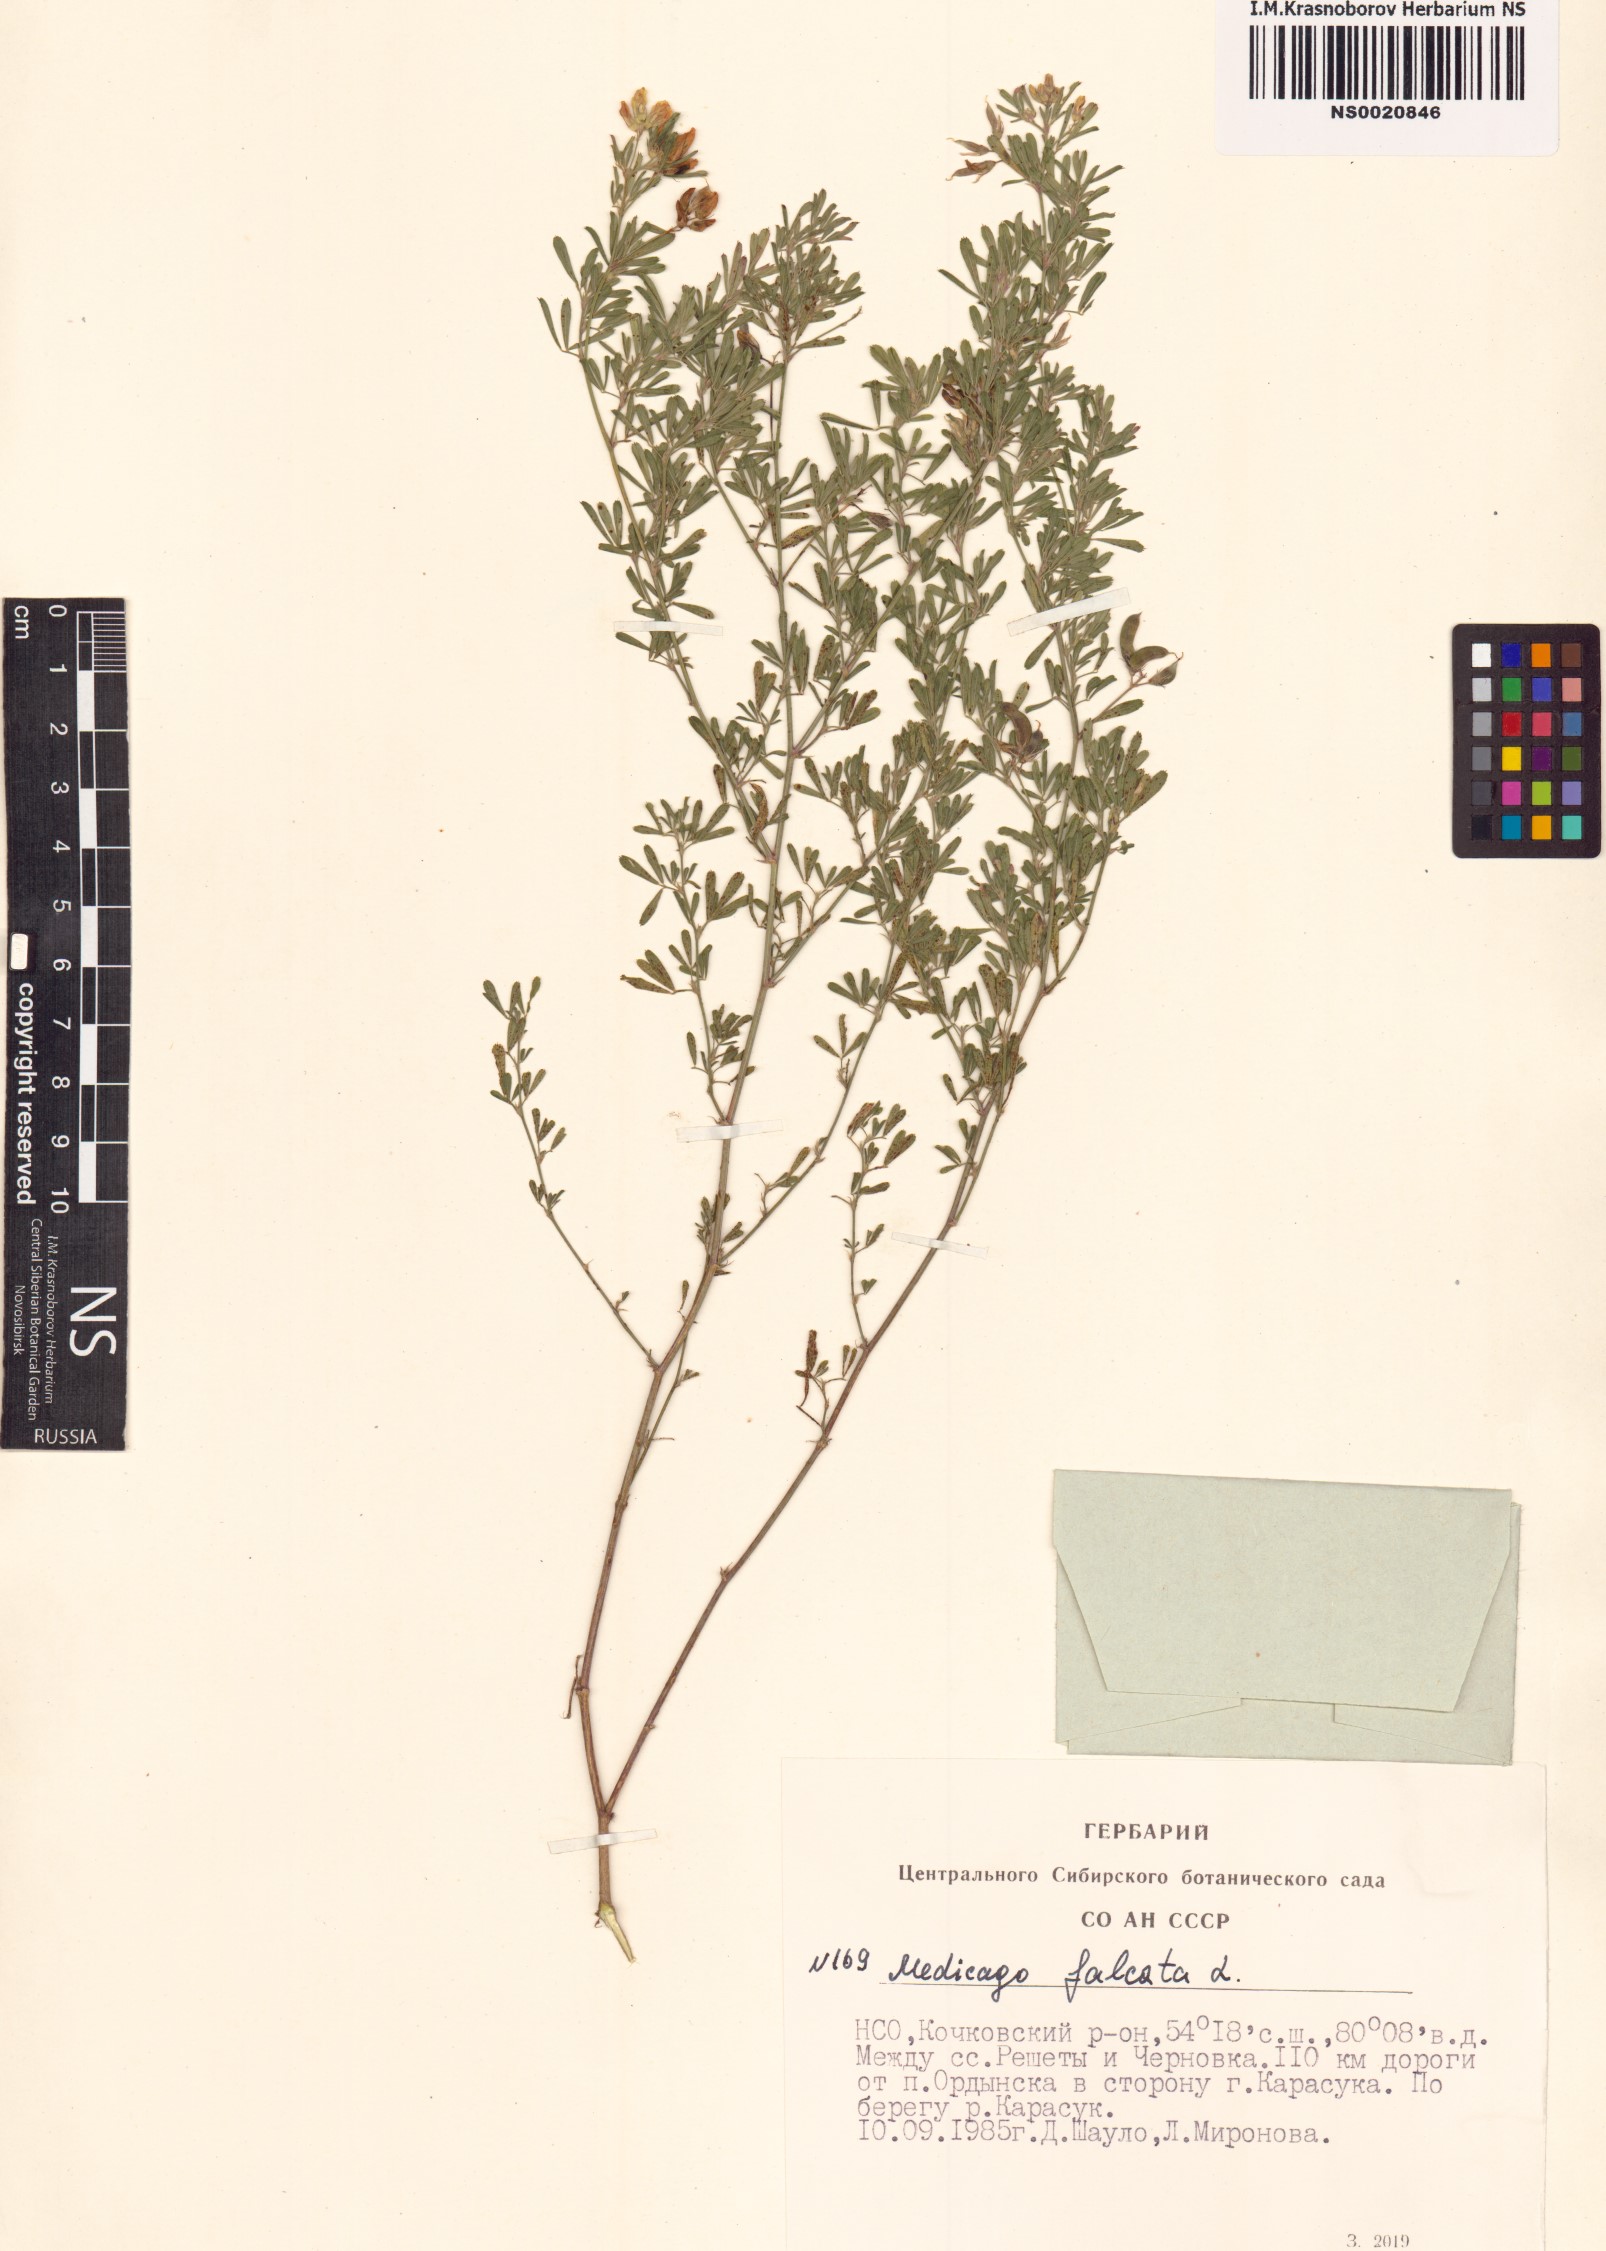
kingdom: Plantae
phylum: Tracheophyta
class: Magnoliopsida
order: Fabales
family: Fabaceae
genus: Medicago
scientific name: Medicago falcata
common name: Sickle medick
